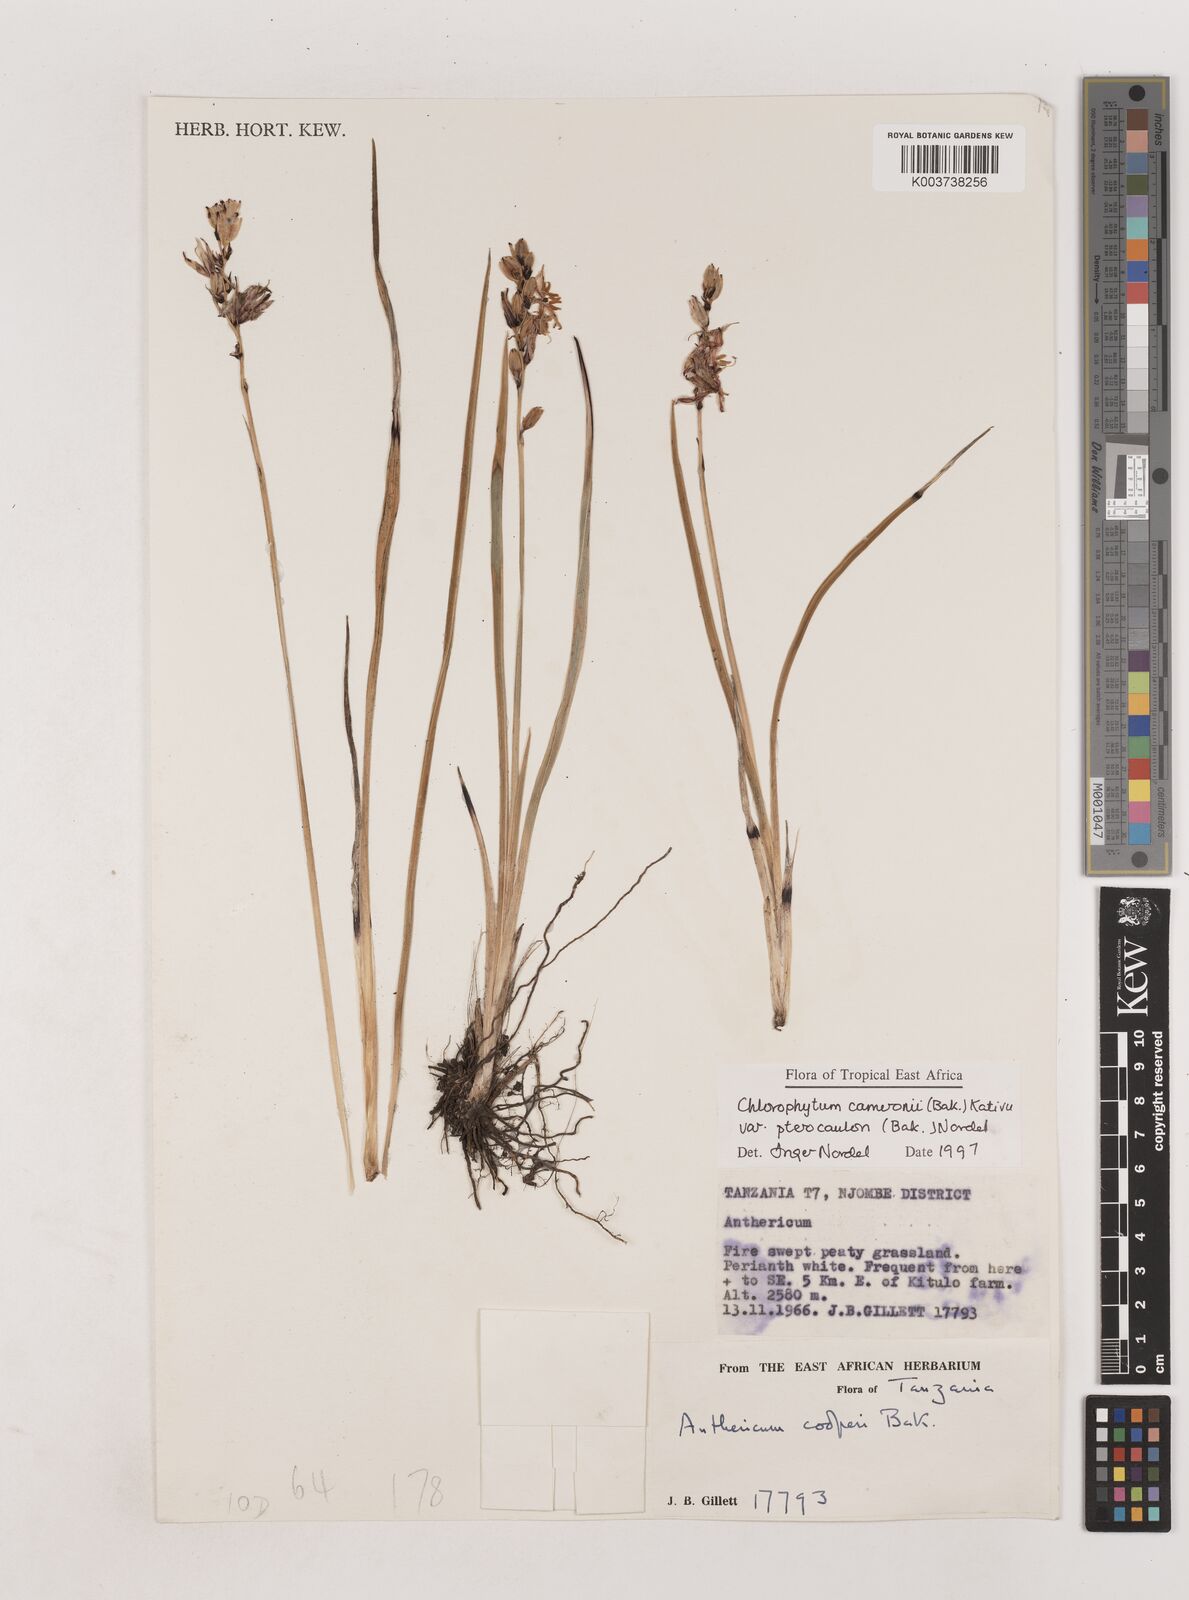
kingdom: Plantae
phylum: Tracheophyta
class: Liliopsida
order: Asparagales
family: Asparagaceae
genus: Chlorophytum
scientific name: Chlorophytum cameronii
